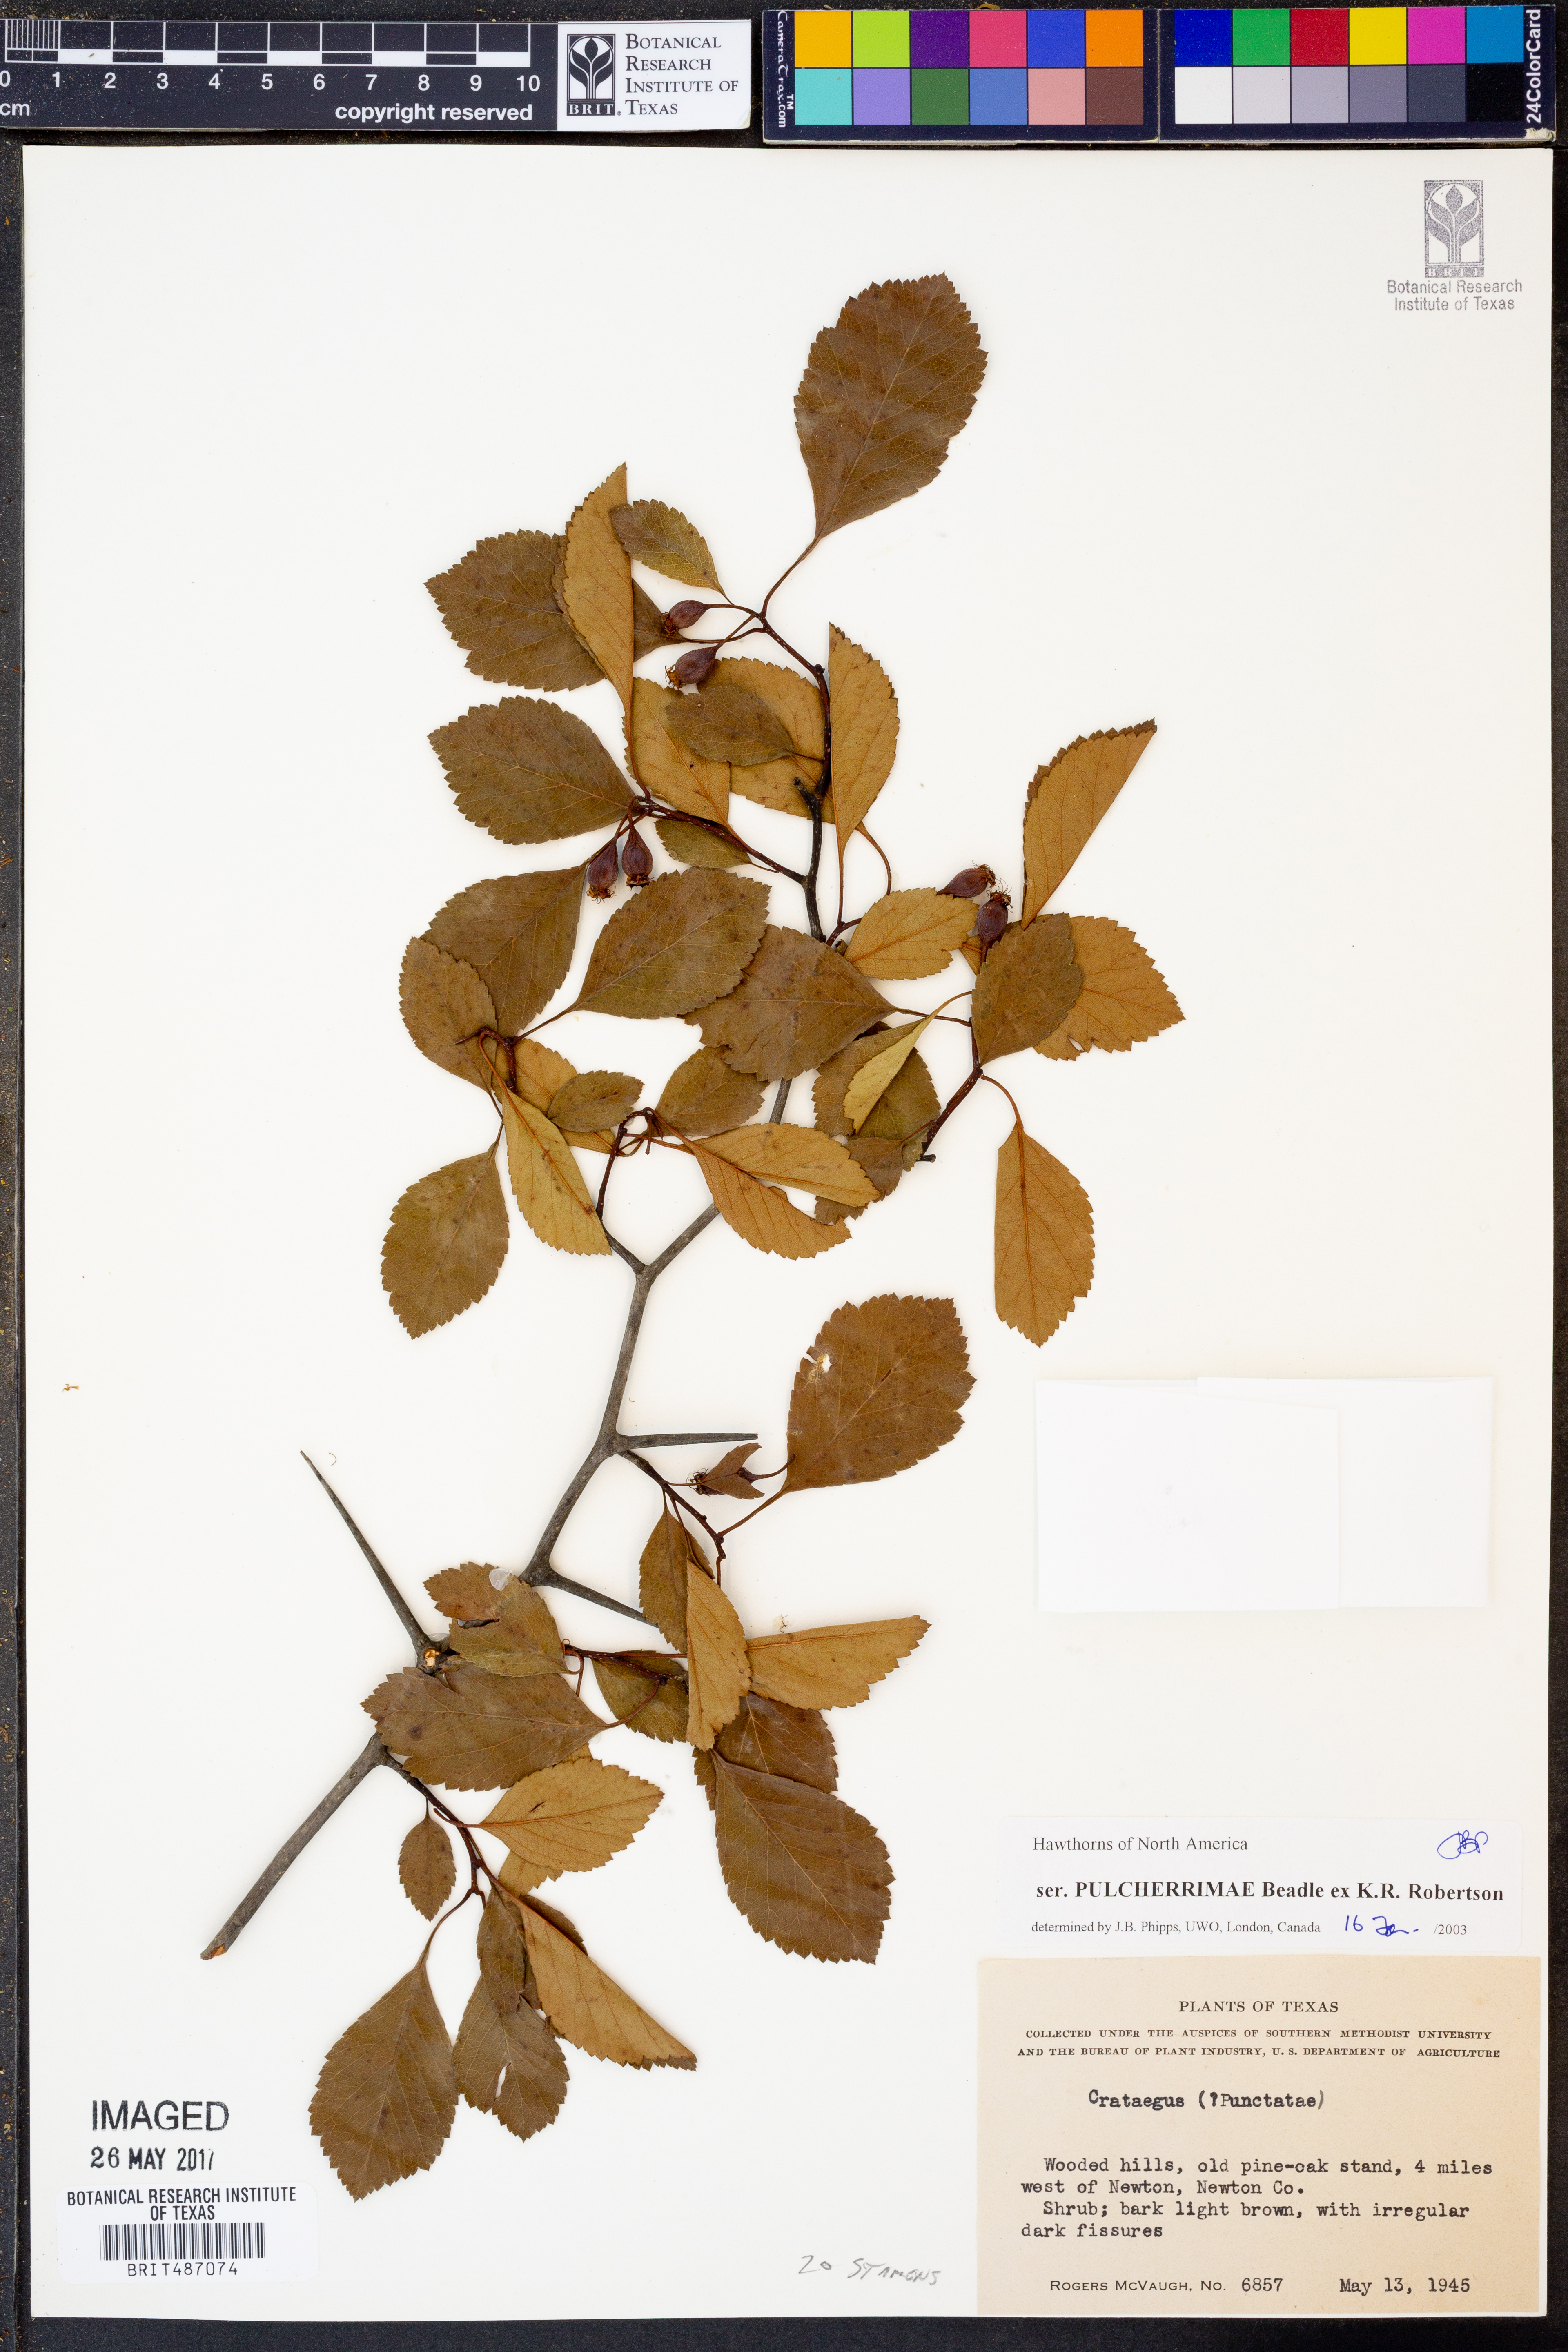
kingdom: Plantae
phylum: Tracheophyta
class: Magnoliopsida
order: Rosales
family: Rosaceae
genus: Crataegus
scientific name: Crataegus pulcherrima
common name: Beautiful hawthorn
